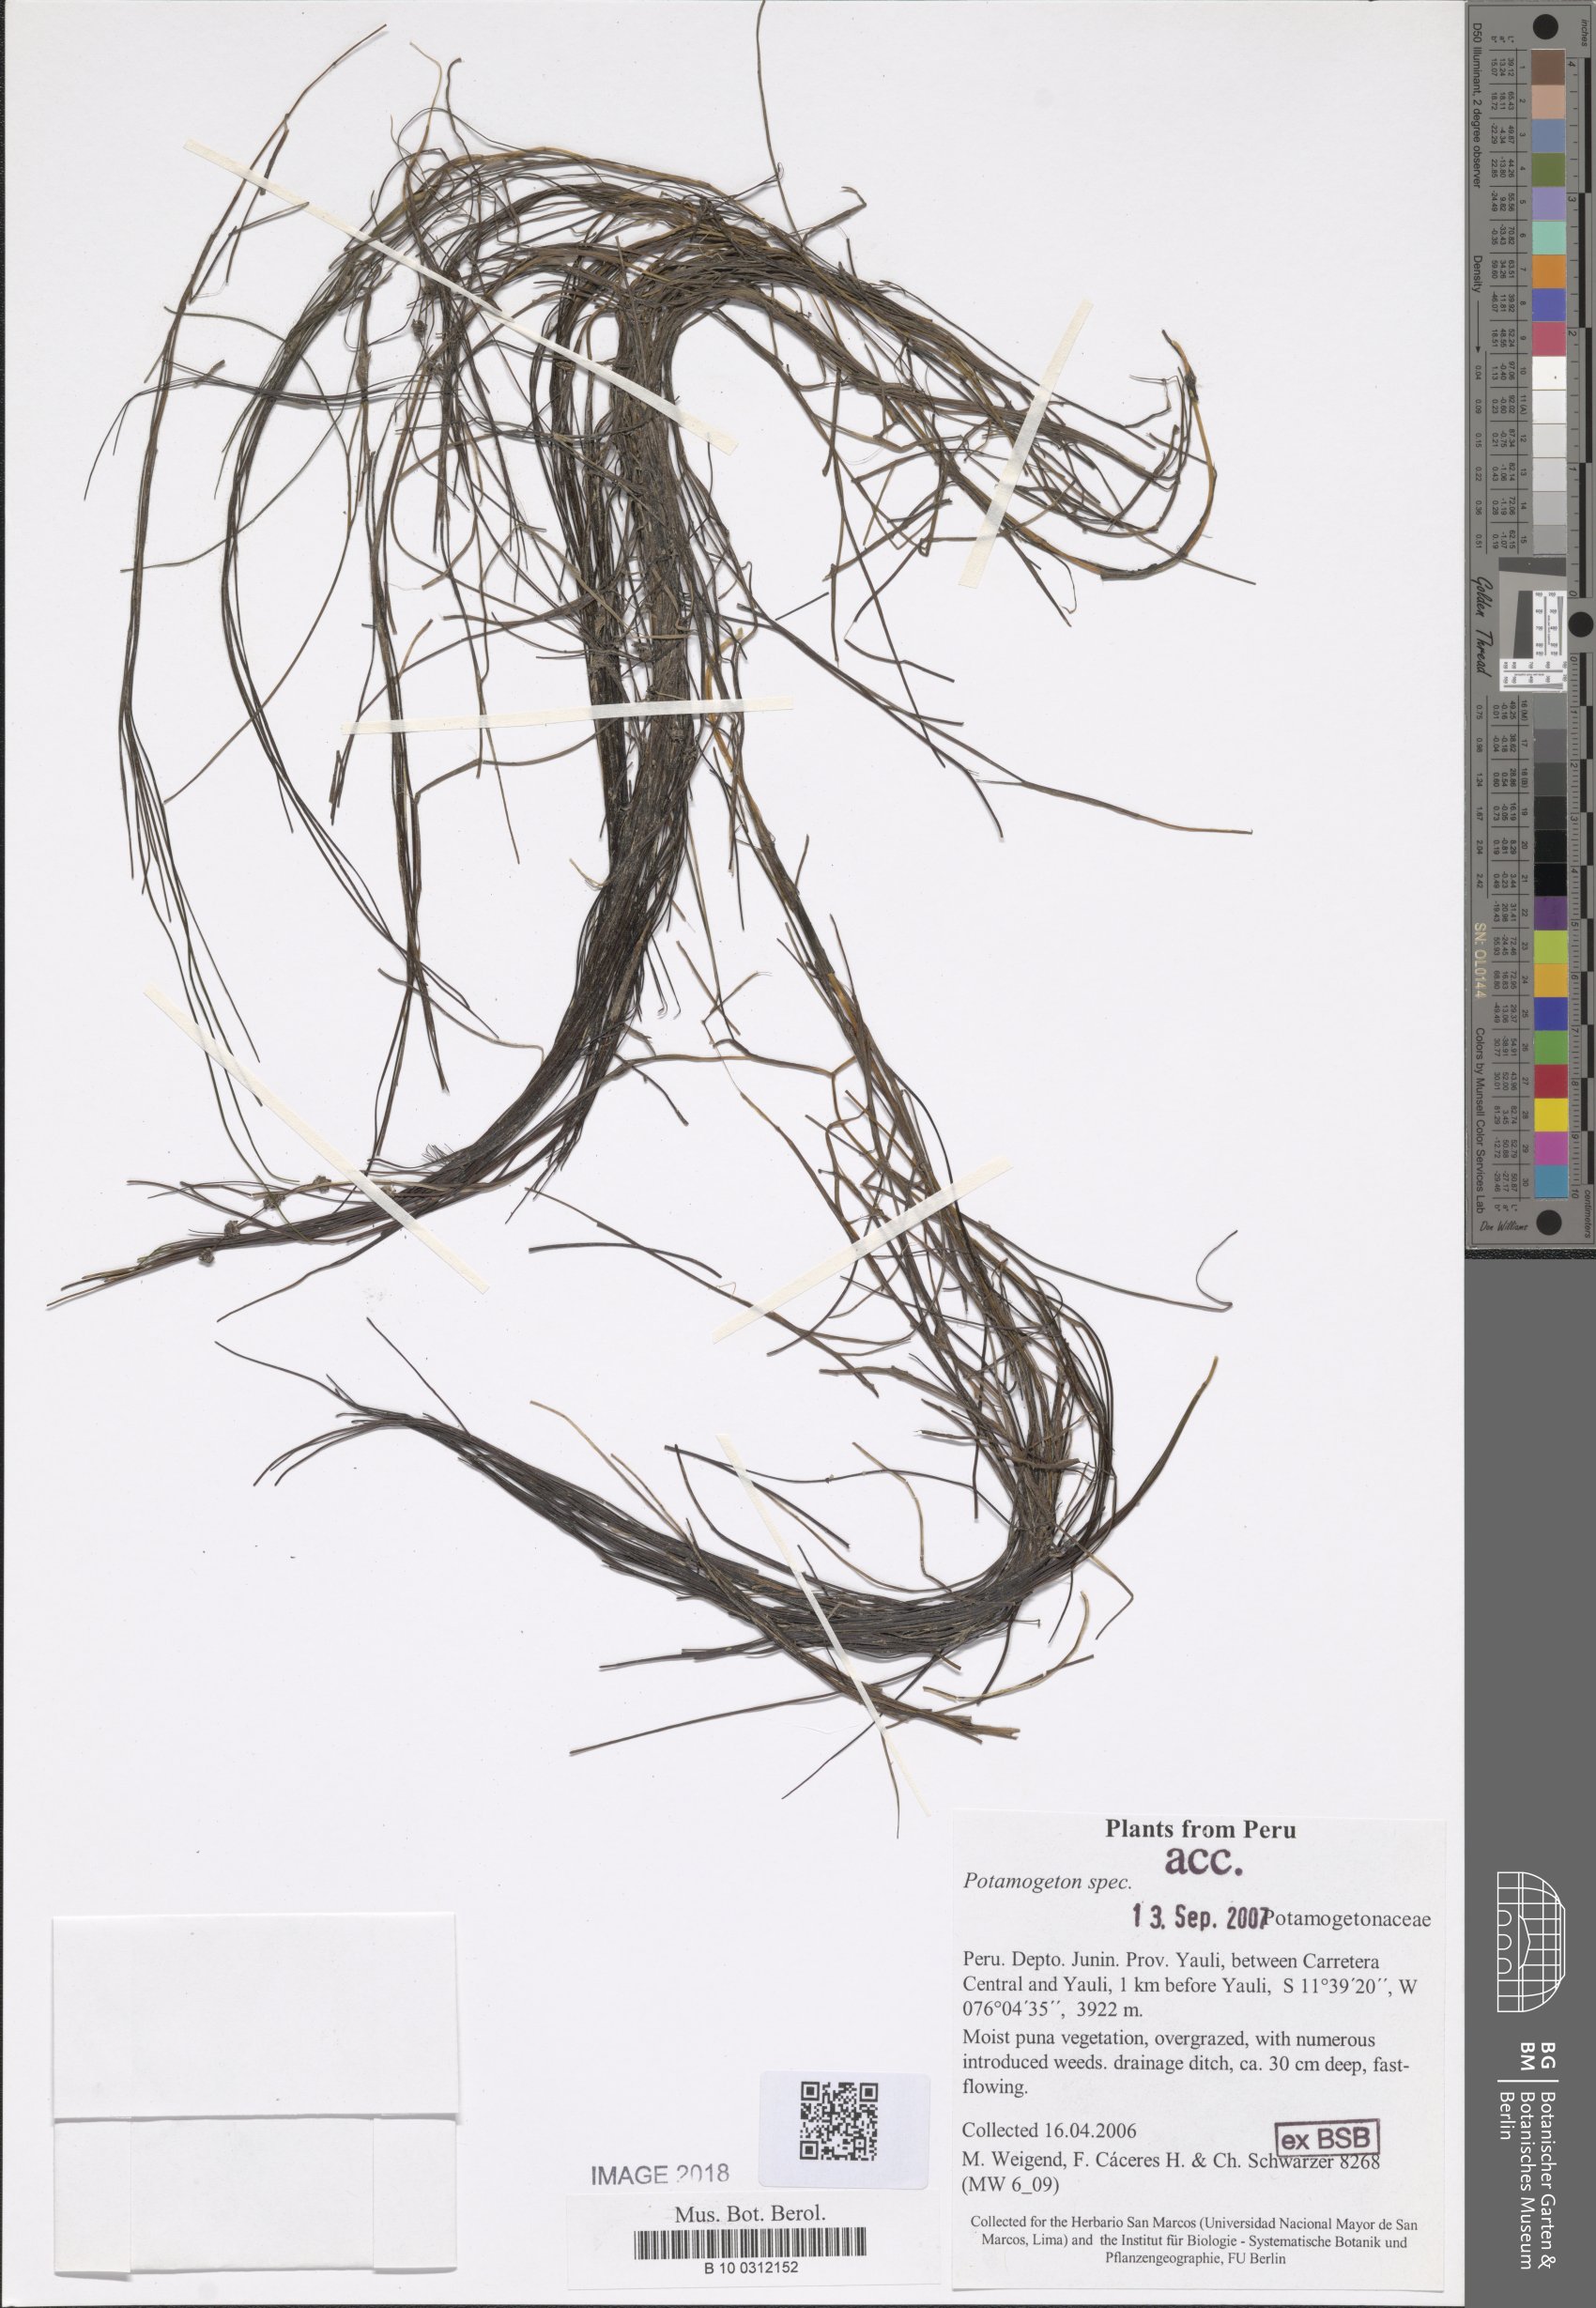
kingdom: Plantae
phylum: Tracheophyta
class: Liliopsida
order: Alismatales
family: Potamogetonaceae
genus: Stuckenia
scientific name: Stuckenia filiformis
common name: Alpine thread-leaved pondweed
